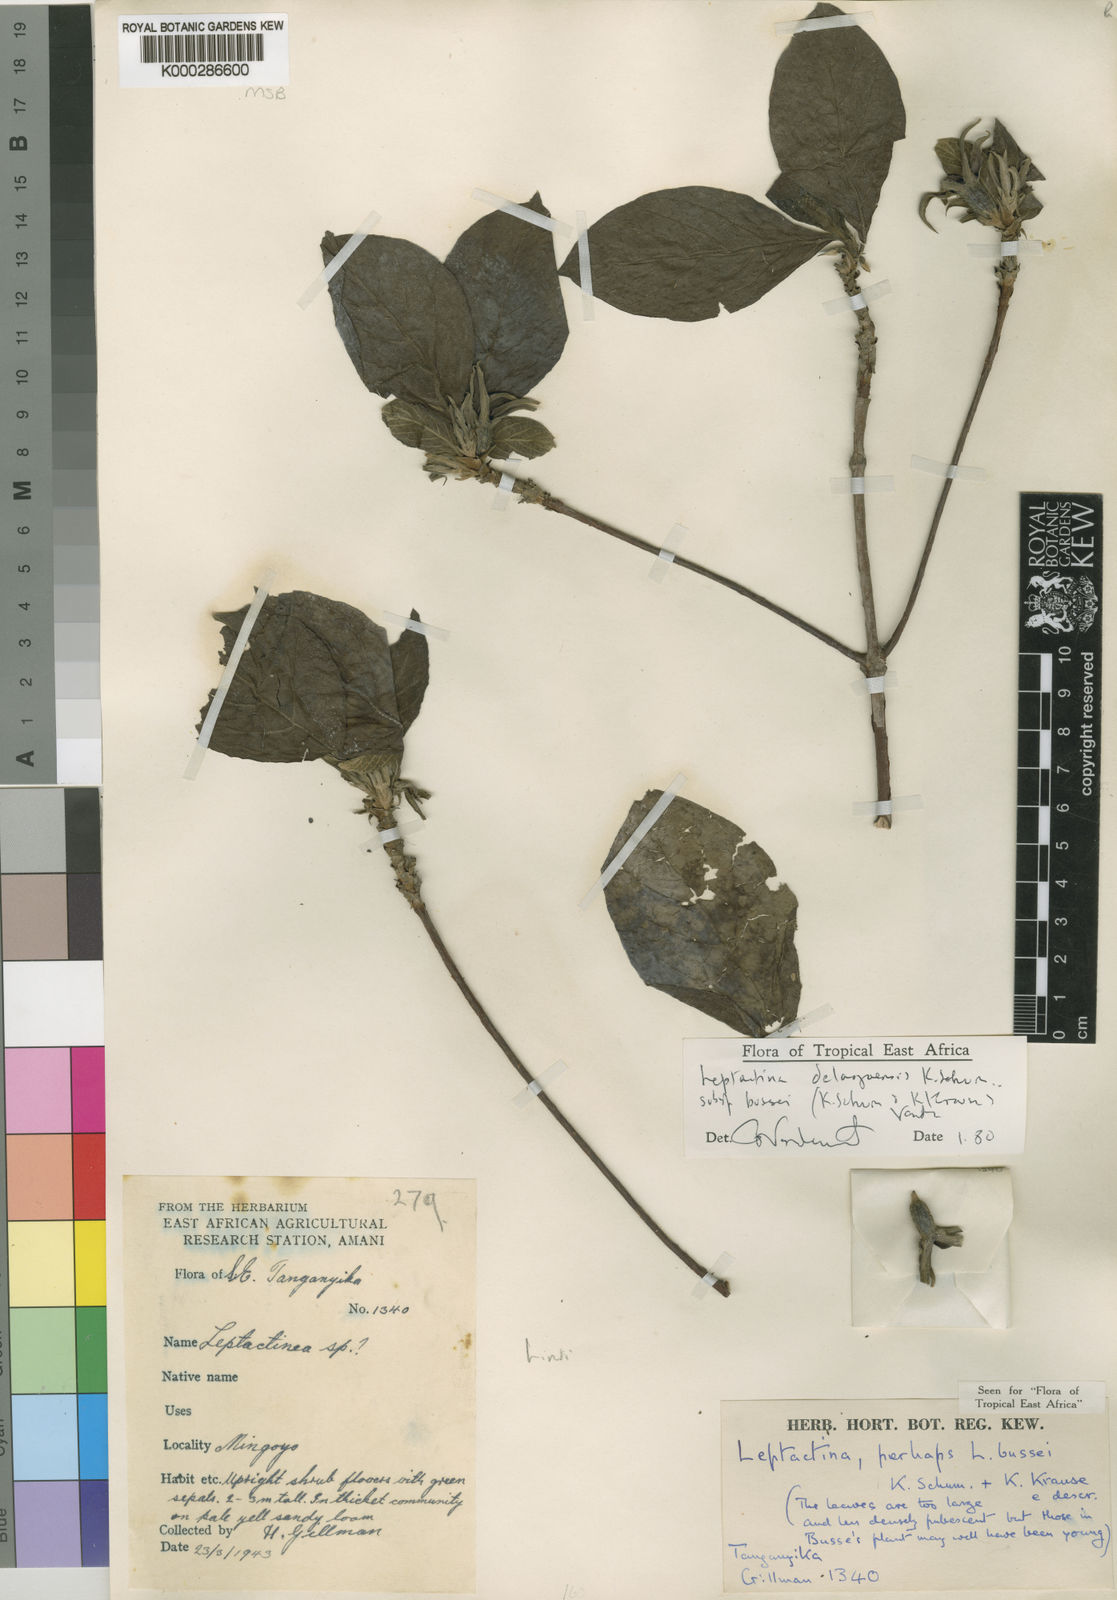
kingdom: Plantae
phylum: Tracheophyta
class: Magnoliopsida
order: Gentianales
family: Rubiaceae
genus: Leptactina
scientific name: Leptactina delagoensis
